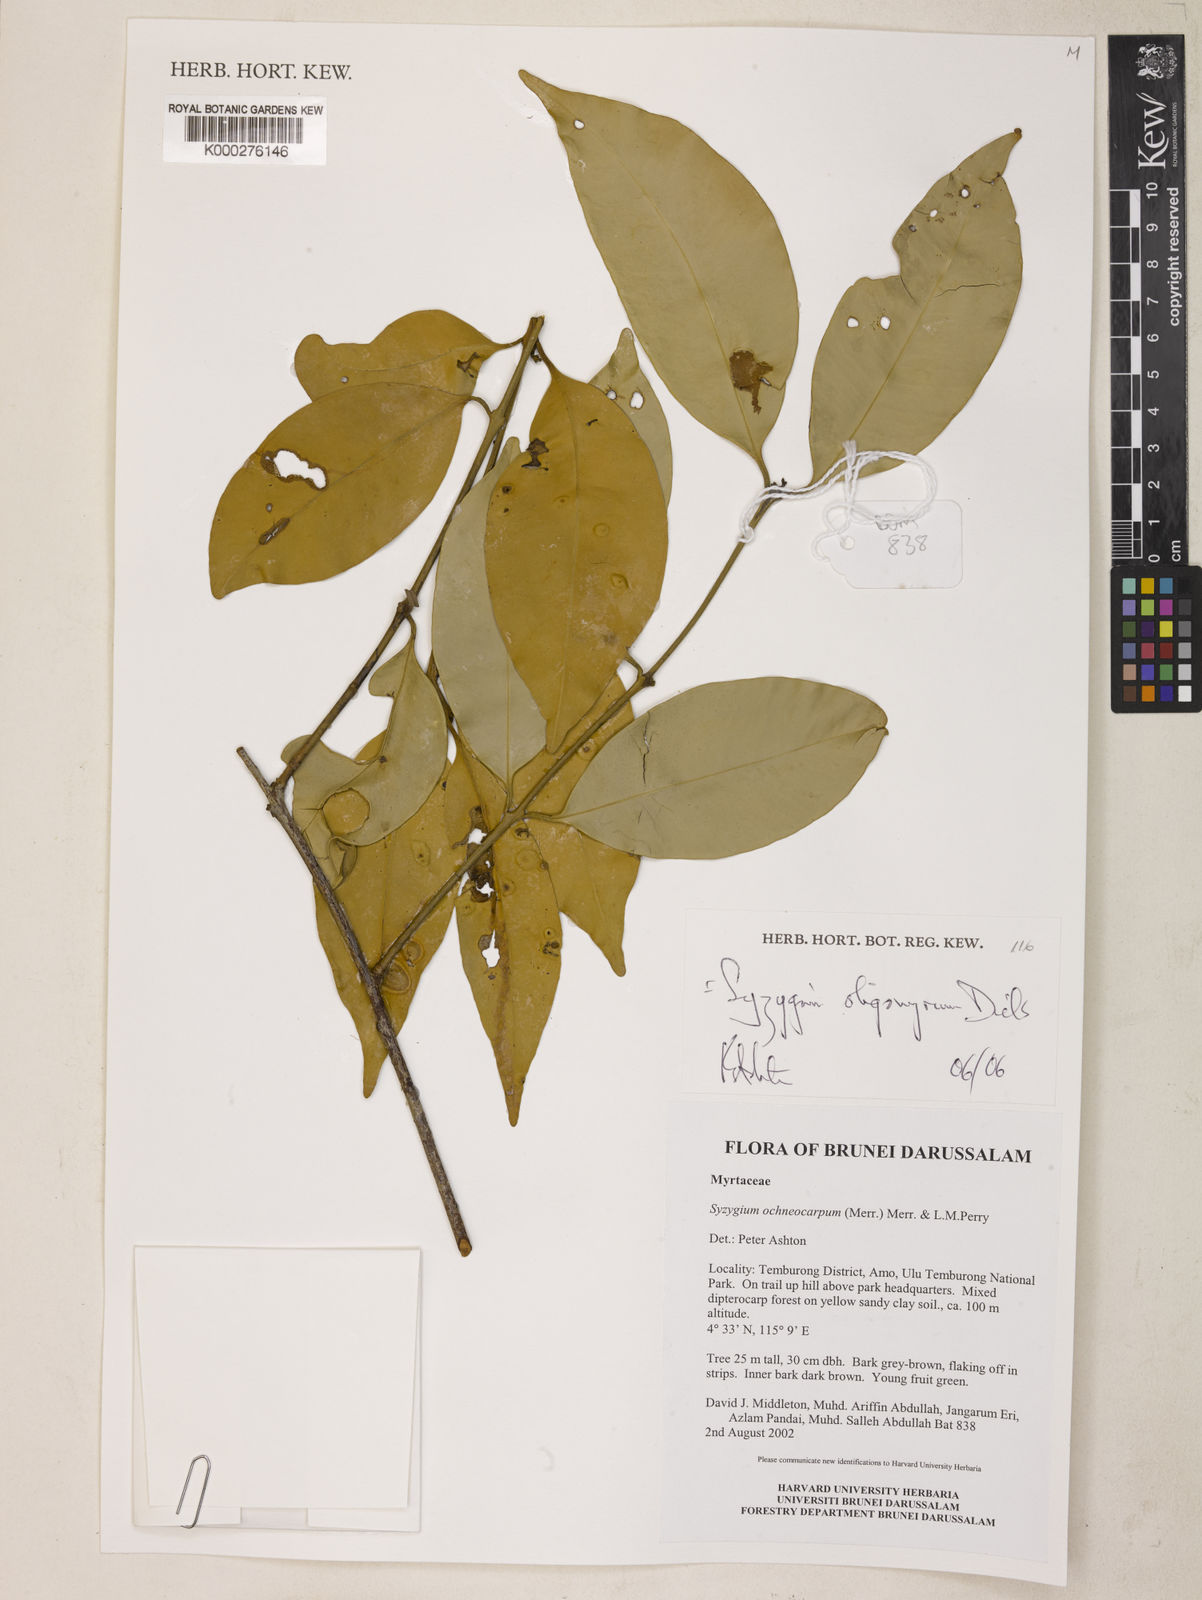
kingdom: Plantae
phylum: Tracheophyta
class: Magnoliopsida
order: Myrtales
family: Myrtaceae
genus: Syzygium
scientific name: Syzygium oligomyrum
